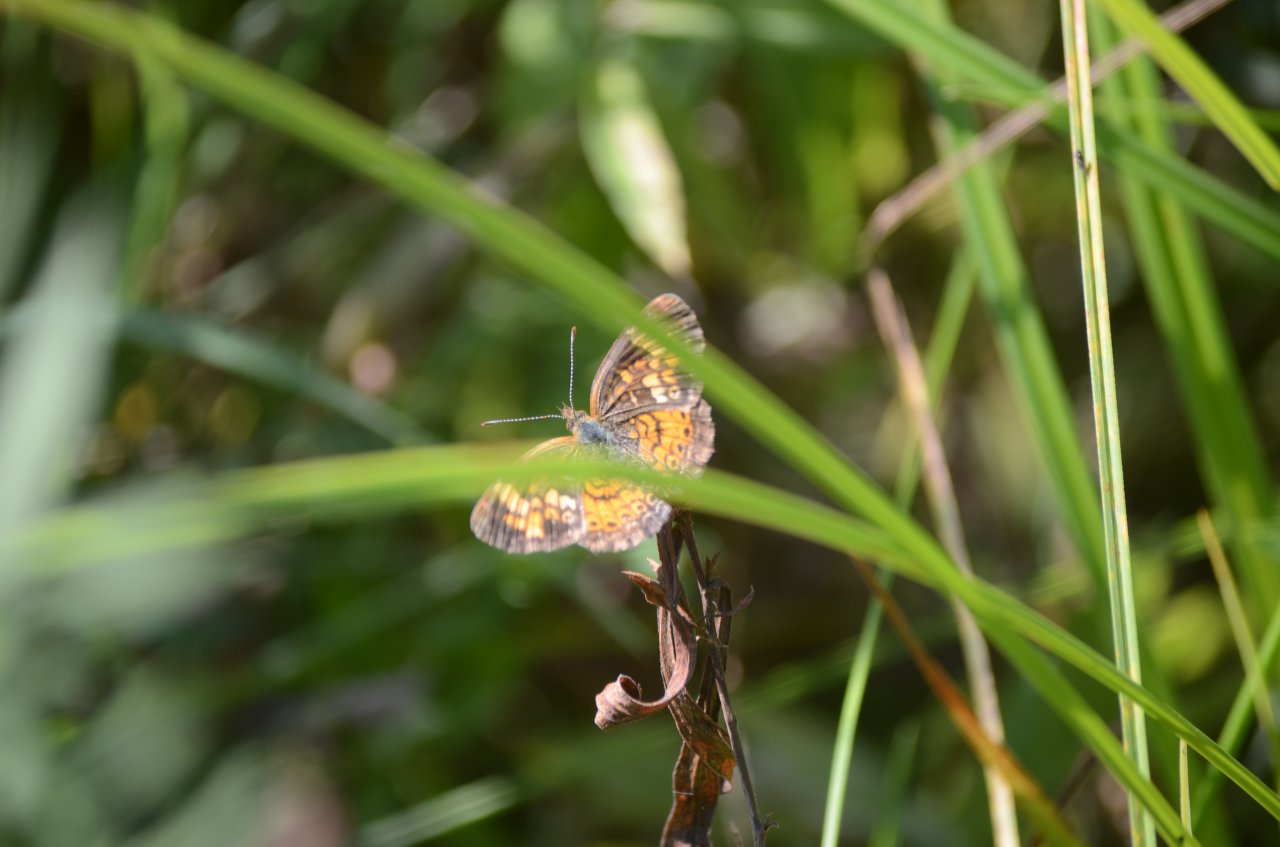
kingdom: Animalia
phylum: Arthropoda
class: Insecta
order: Lepidoptera
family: Nymphalidae
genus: Phyciodes
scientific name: Phyciodes tharos
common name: Northern Crescent
